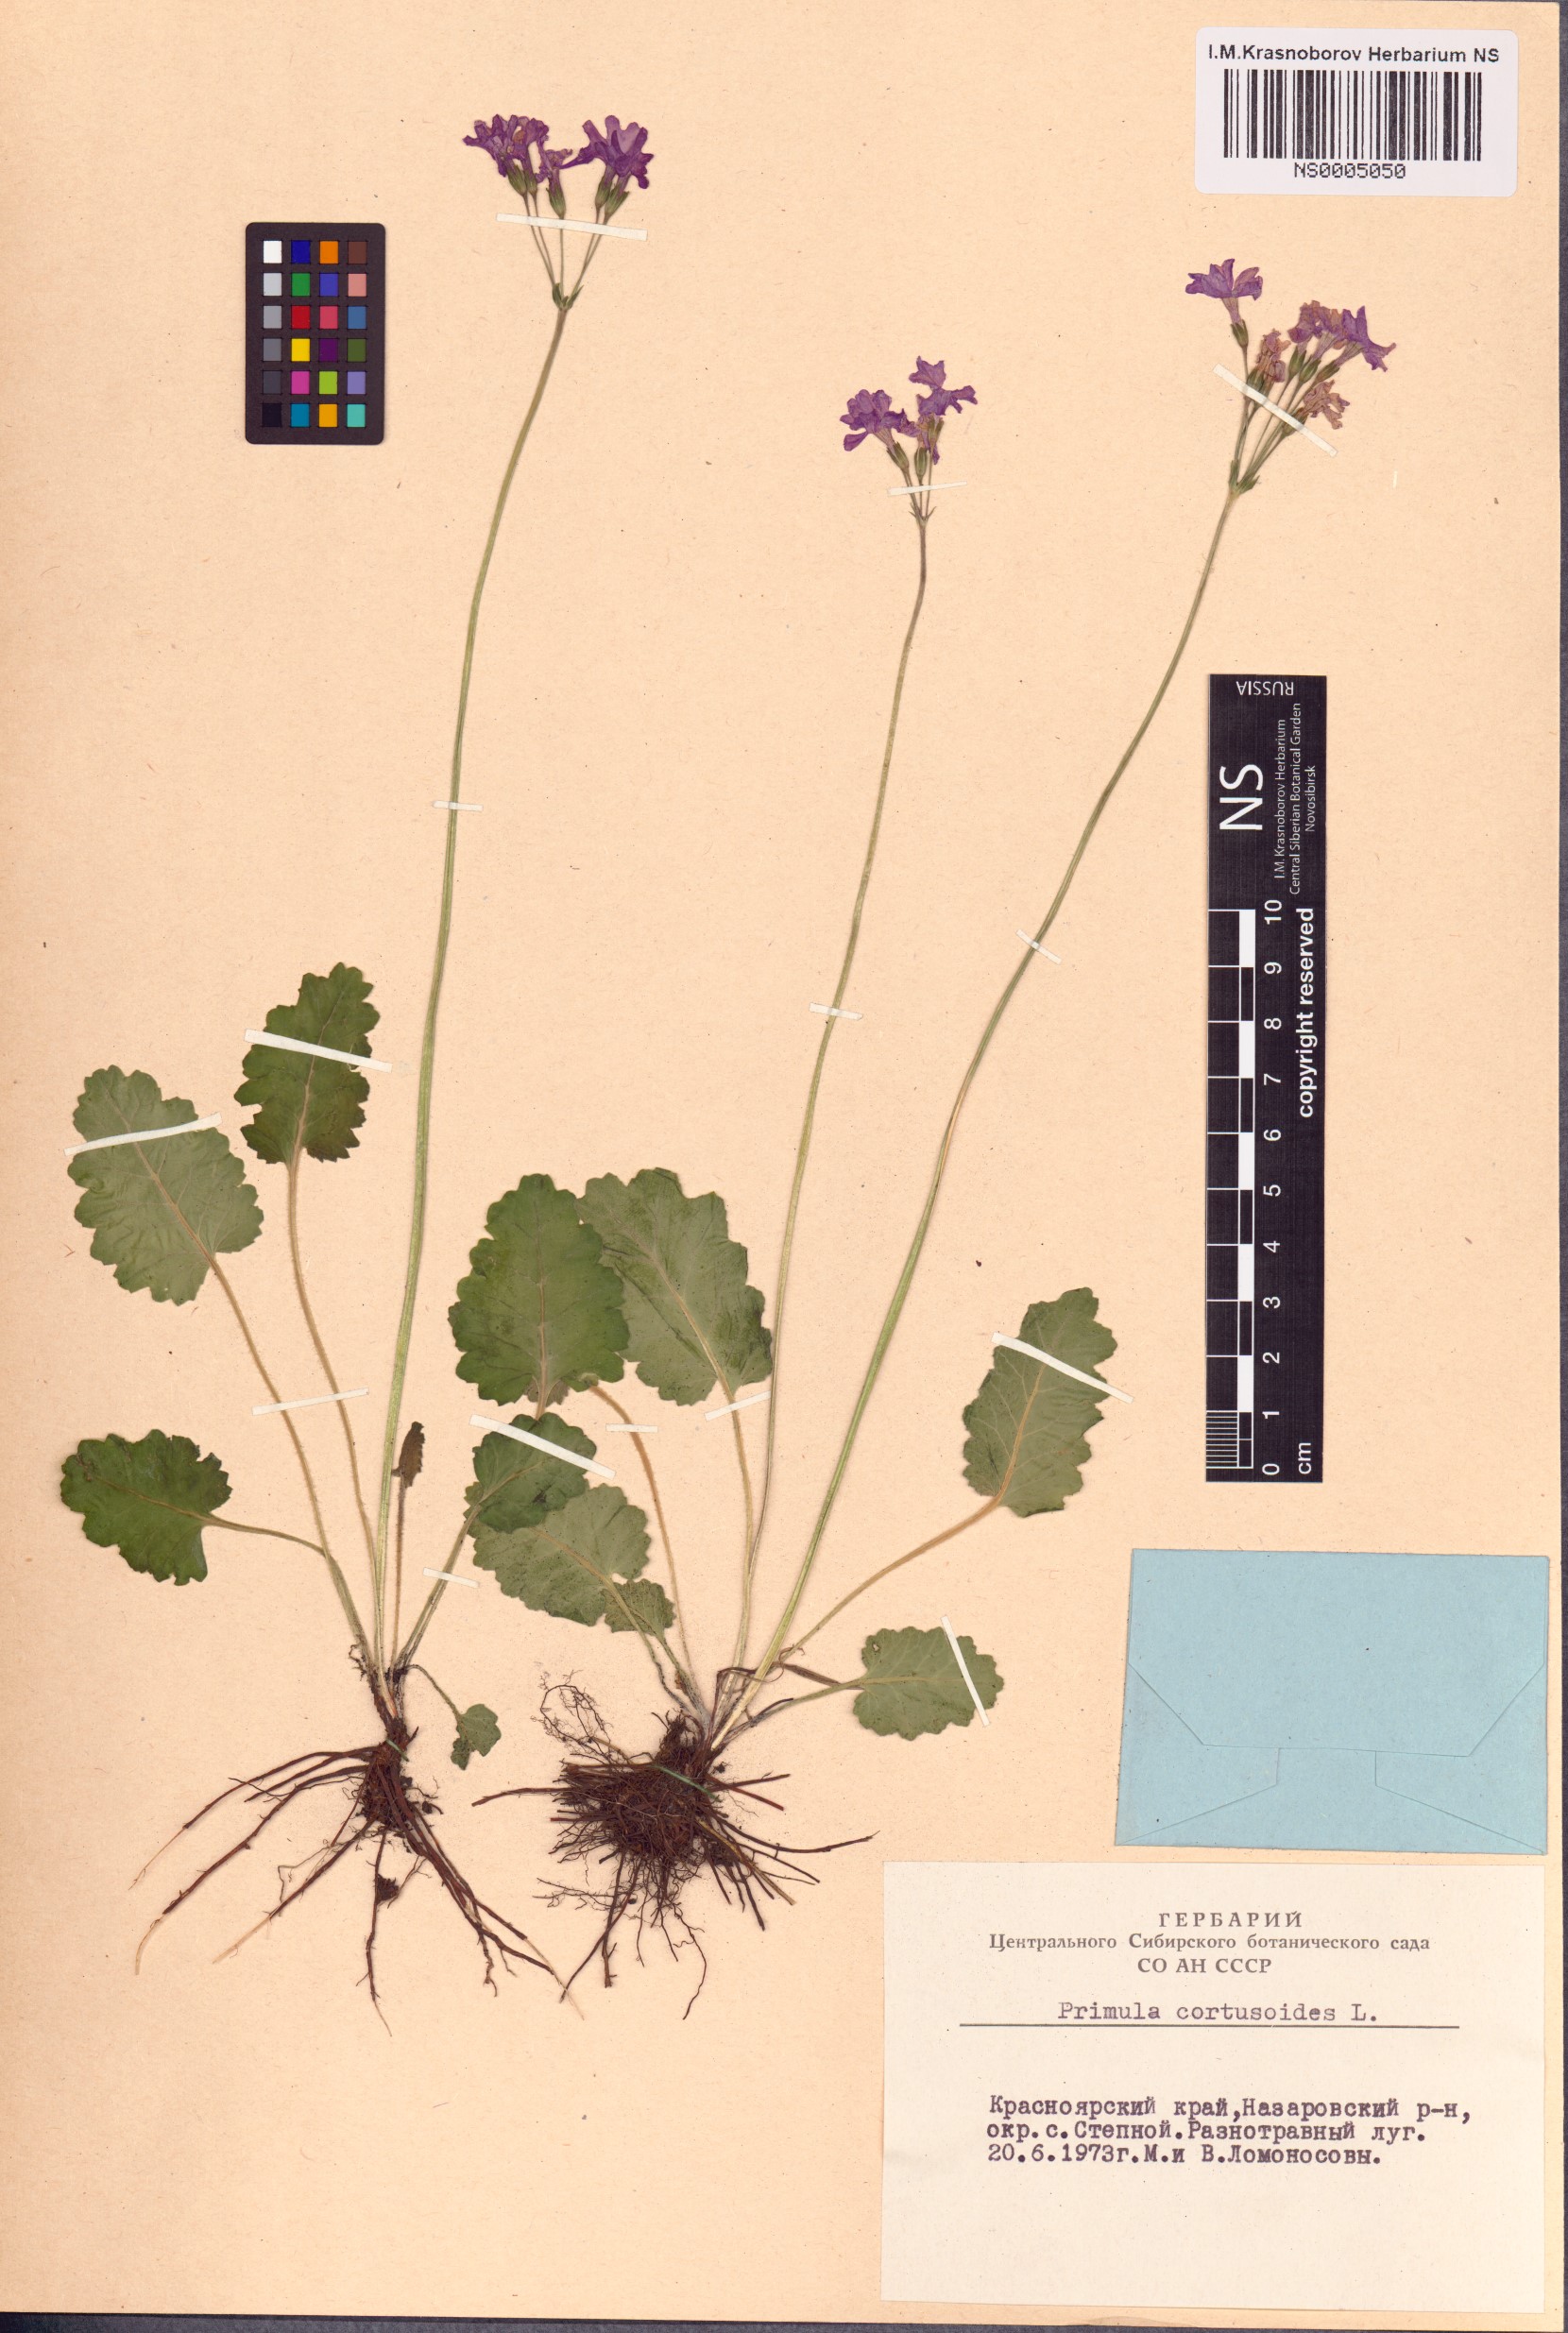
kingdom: Plantae
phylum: Tracheophyta
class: Magnoliopsida
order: Ericales
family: Primulaceae
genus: Primula
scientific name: Primula cortusoides
